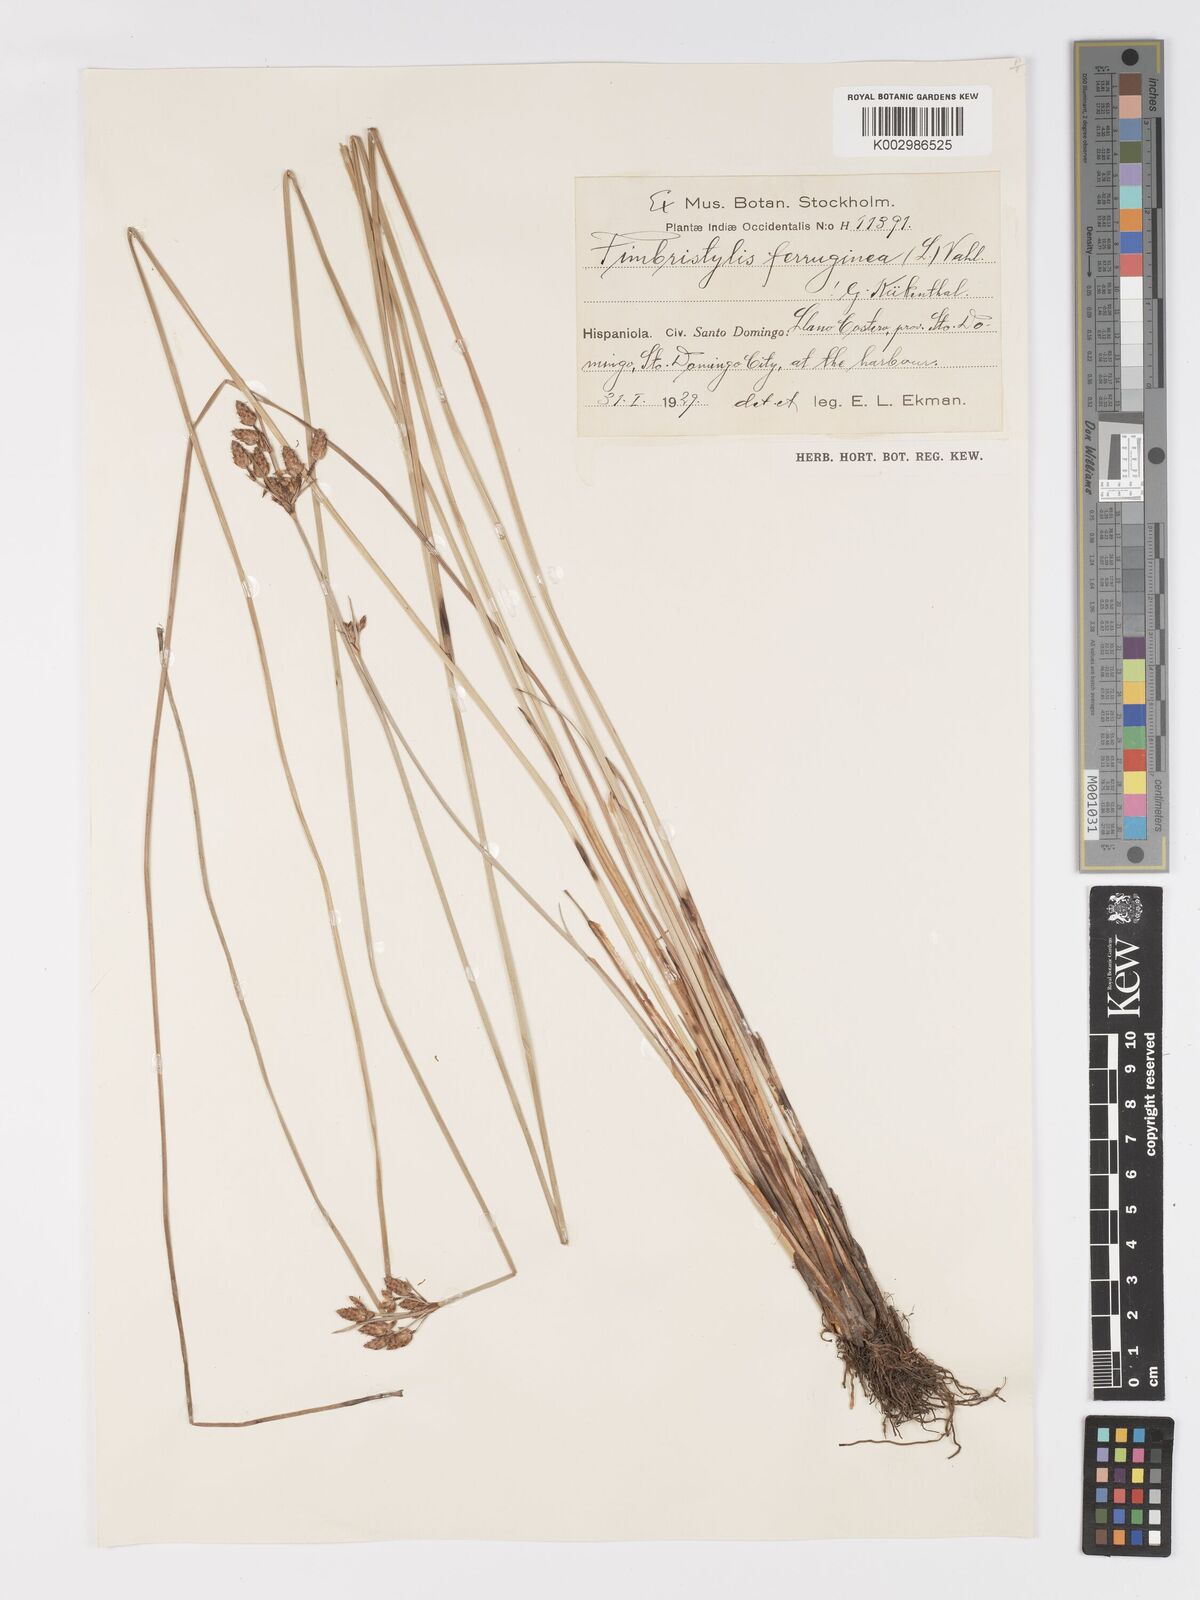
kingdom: Plantae
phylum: Tracheophyta
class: Liliopsida
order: Poales
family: Cyperaceae
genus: Fimbristylis
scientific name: Fimbristylis ferruginea
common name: West indian fimbry
